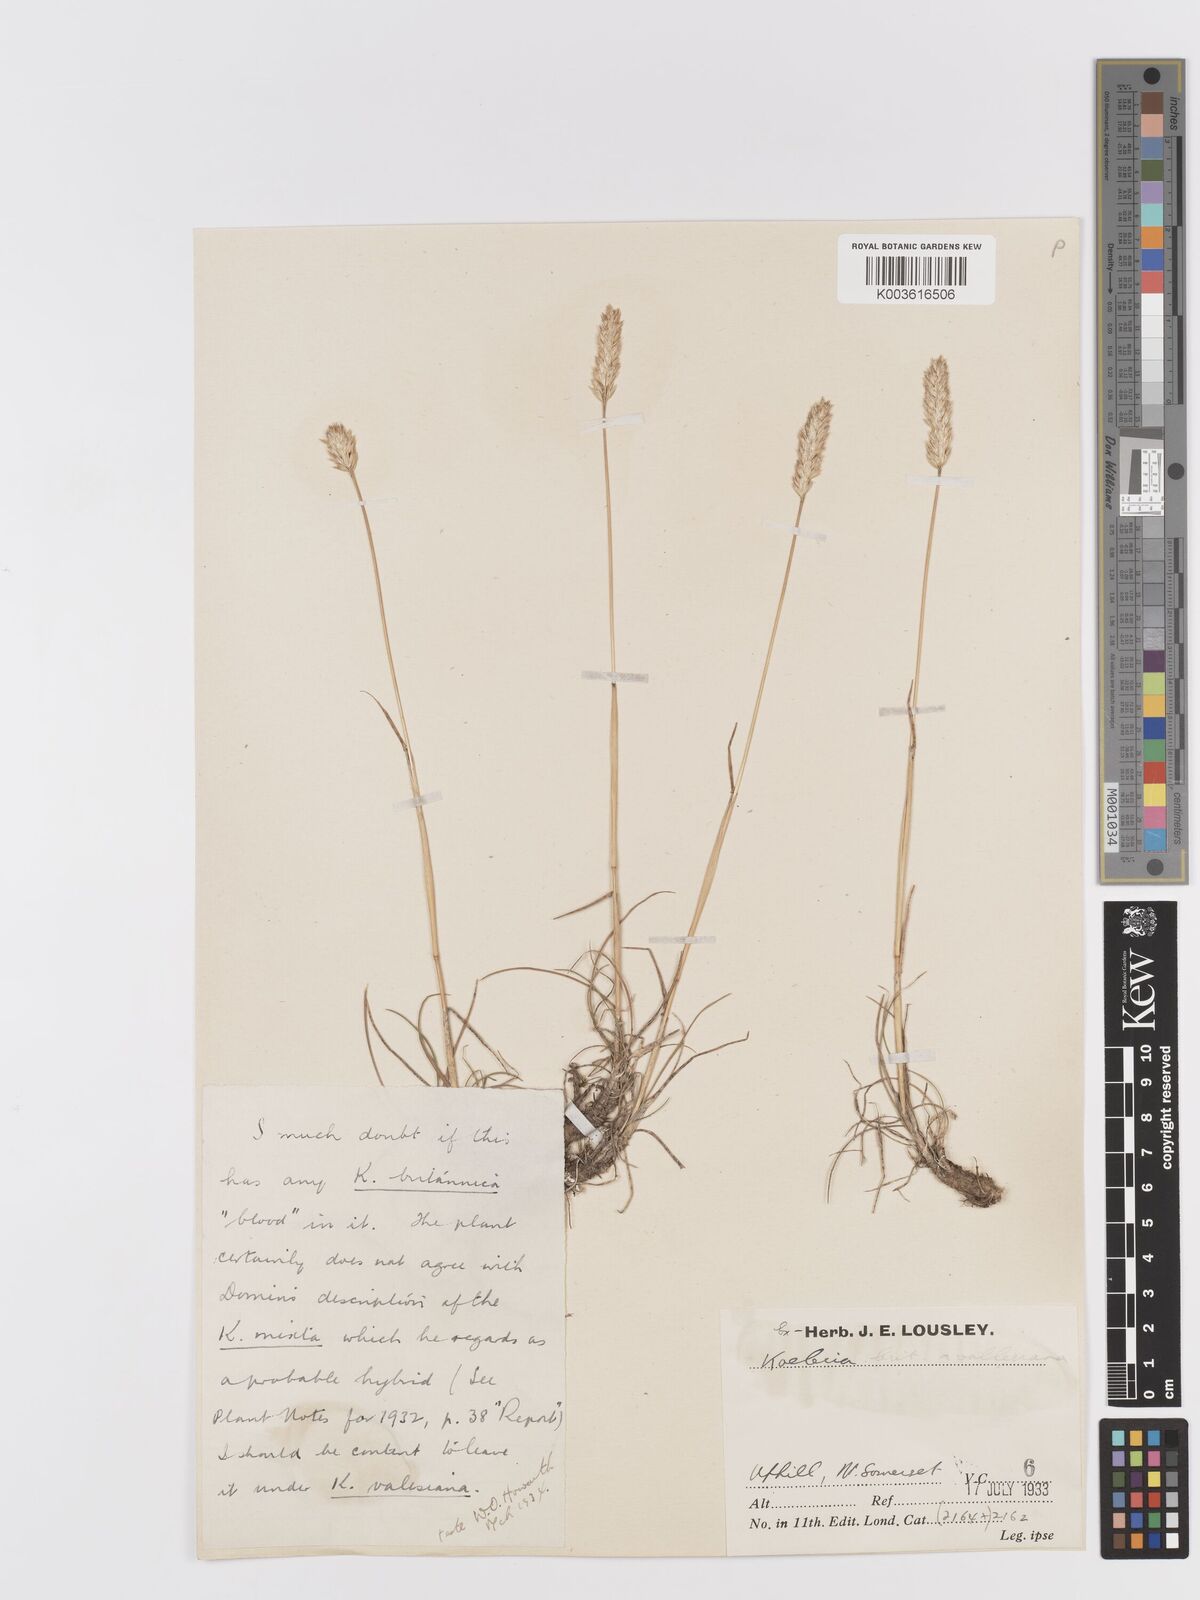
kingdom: Plantae
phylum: Tracheophyta
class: Liliopsida
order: Poales
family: Poaceae
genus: Koeleria
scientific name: Koeleria vallesiana
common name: Somerset hair-grass
